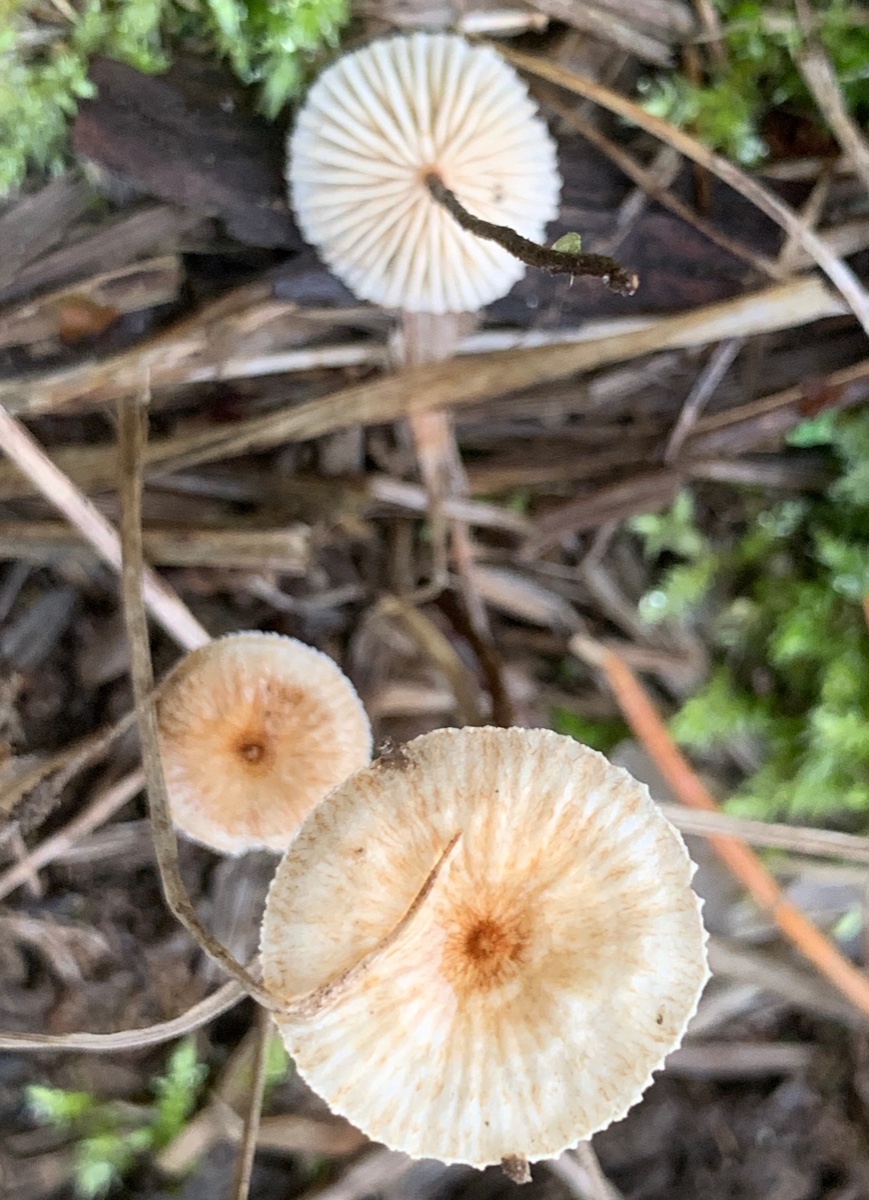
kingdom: Fungi
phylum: Basidiomycota
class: Agaricomycetes
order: Agaricales
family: Marasmiaceae
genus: Crinipellis
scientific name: Crinipellis scabella
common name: børstefod
